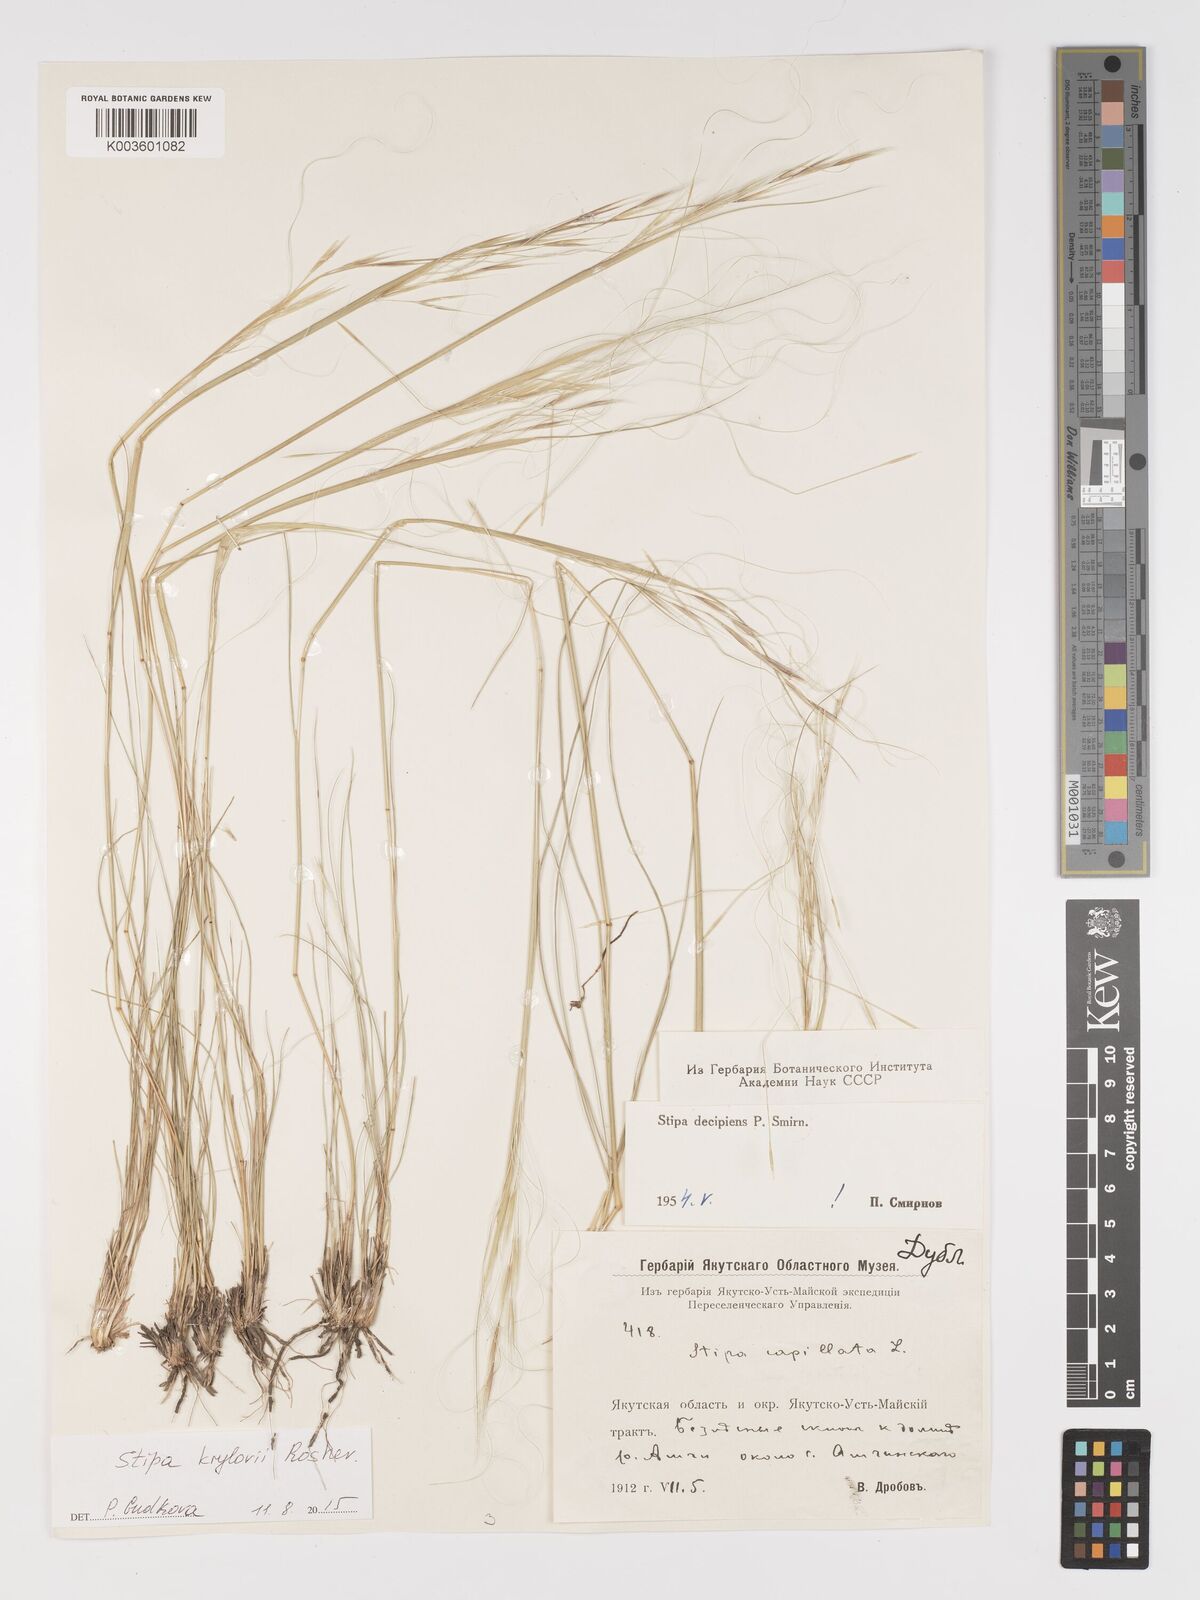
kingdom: Plantae
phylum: Tracheophyta
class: Liliopsida
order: Poales
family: Poaceae
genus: Stipa
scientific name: Stipa krylovii
